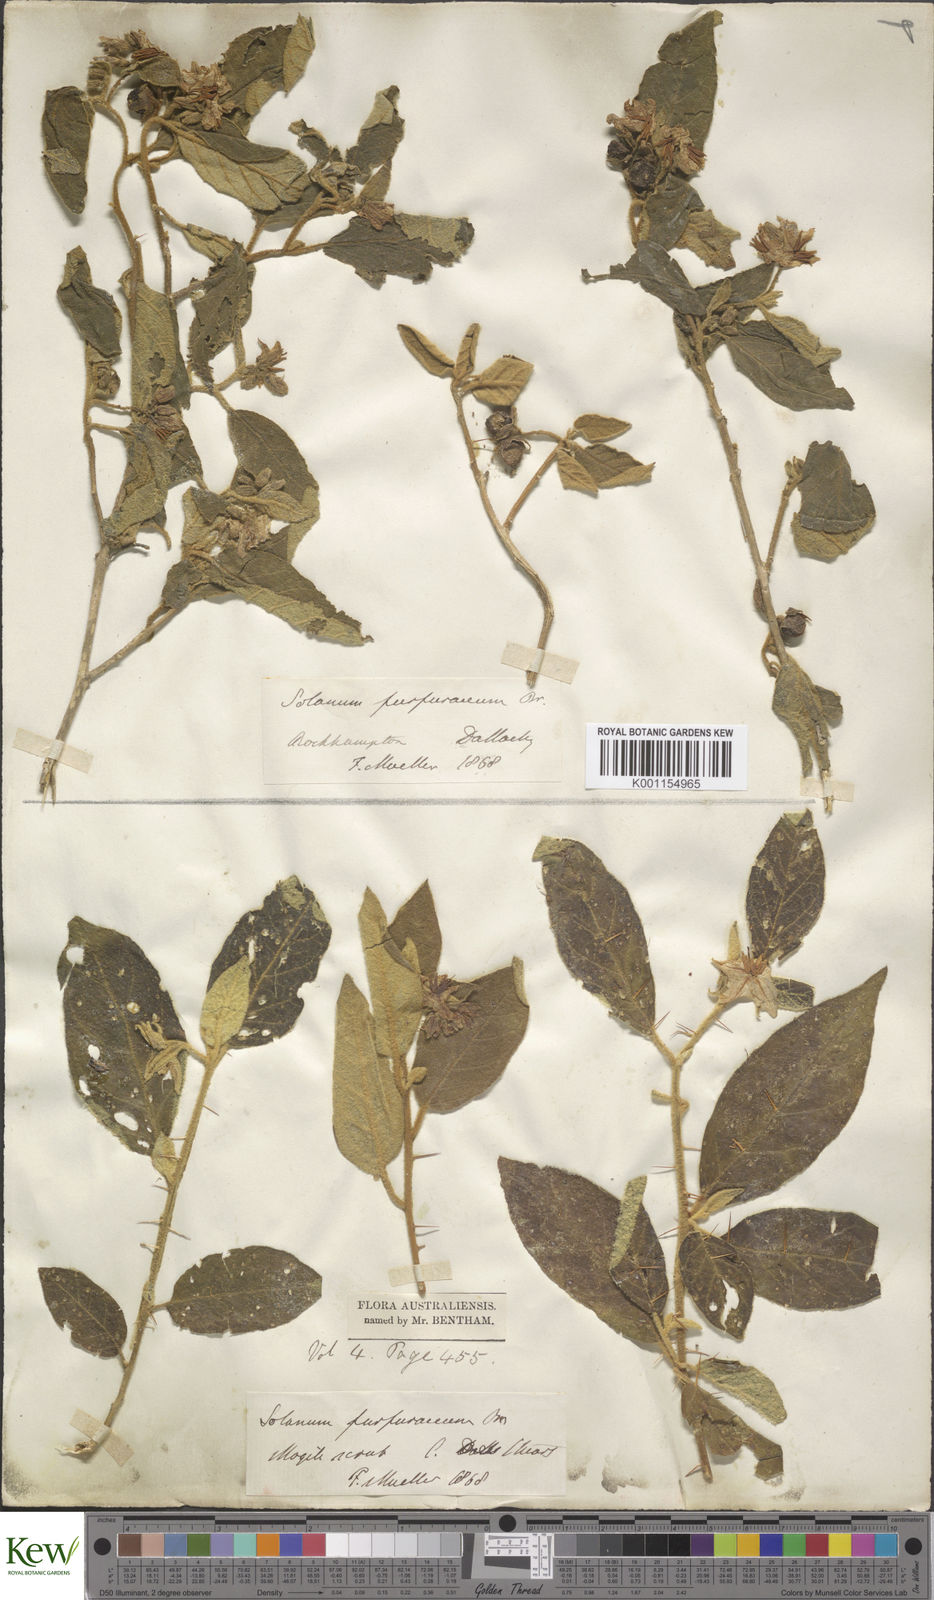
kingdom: Plantae
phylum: Tracheophyta
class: Magnoliopsida
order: Solanales
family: Solanaceae
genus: Solanum
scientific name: Solanum furfuraceum
